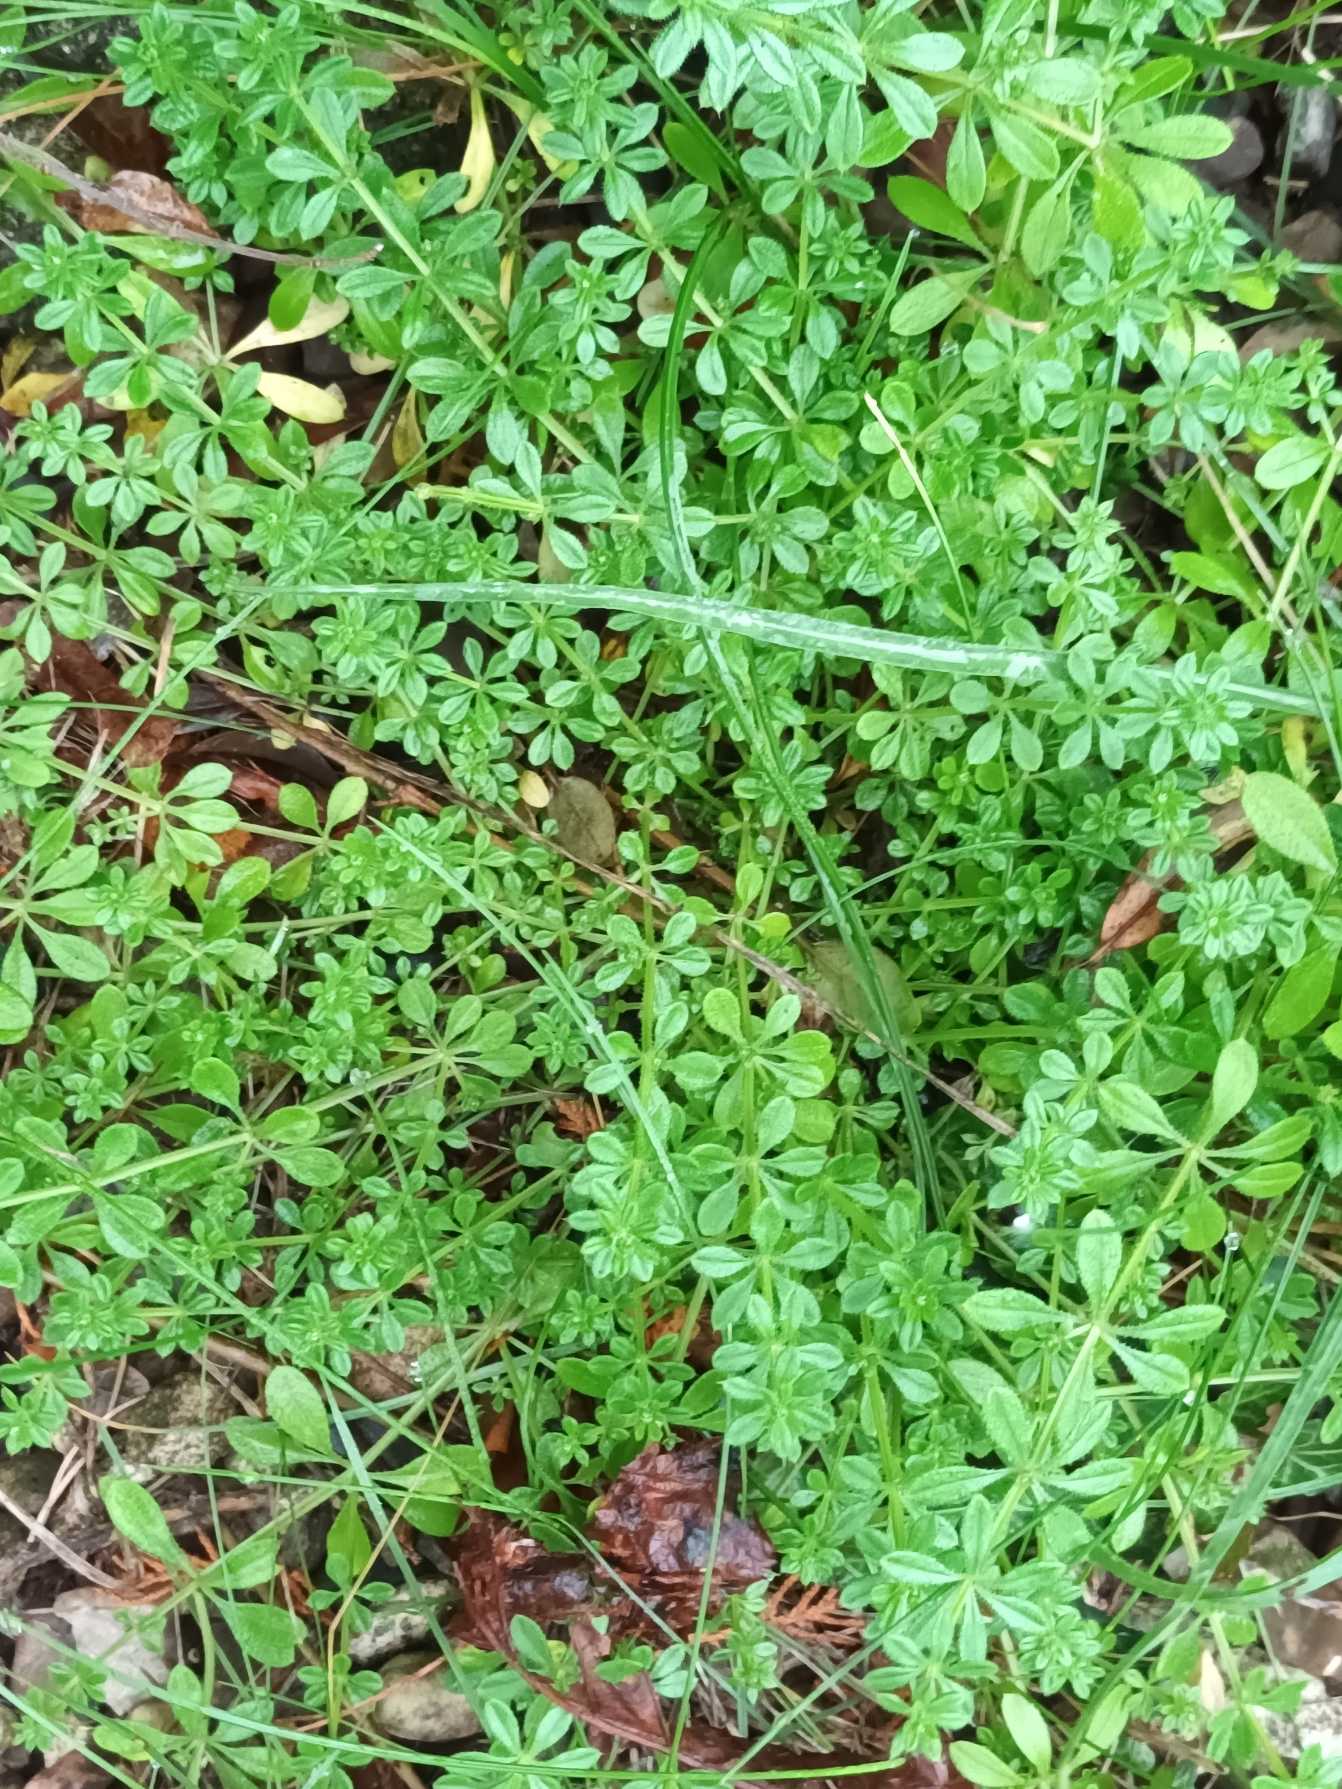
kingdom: Plantae
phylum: Tracheophyta
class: Magnoliopsida
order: Gentianales
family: Rubiaceae
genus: Galium
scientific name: Galium aparine
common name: Burre-snerre
